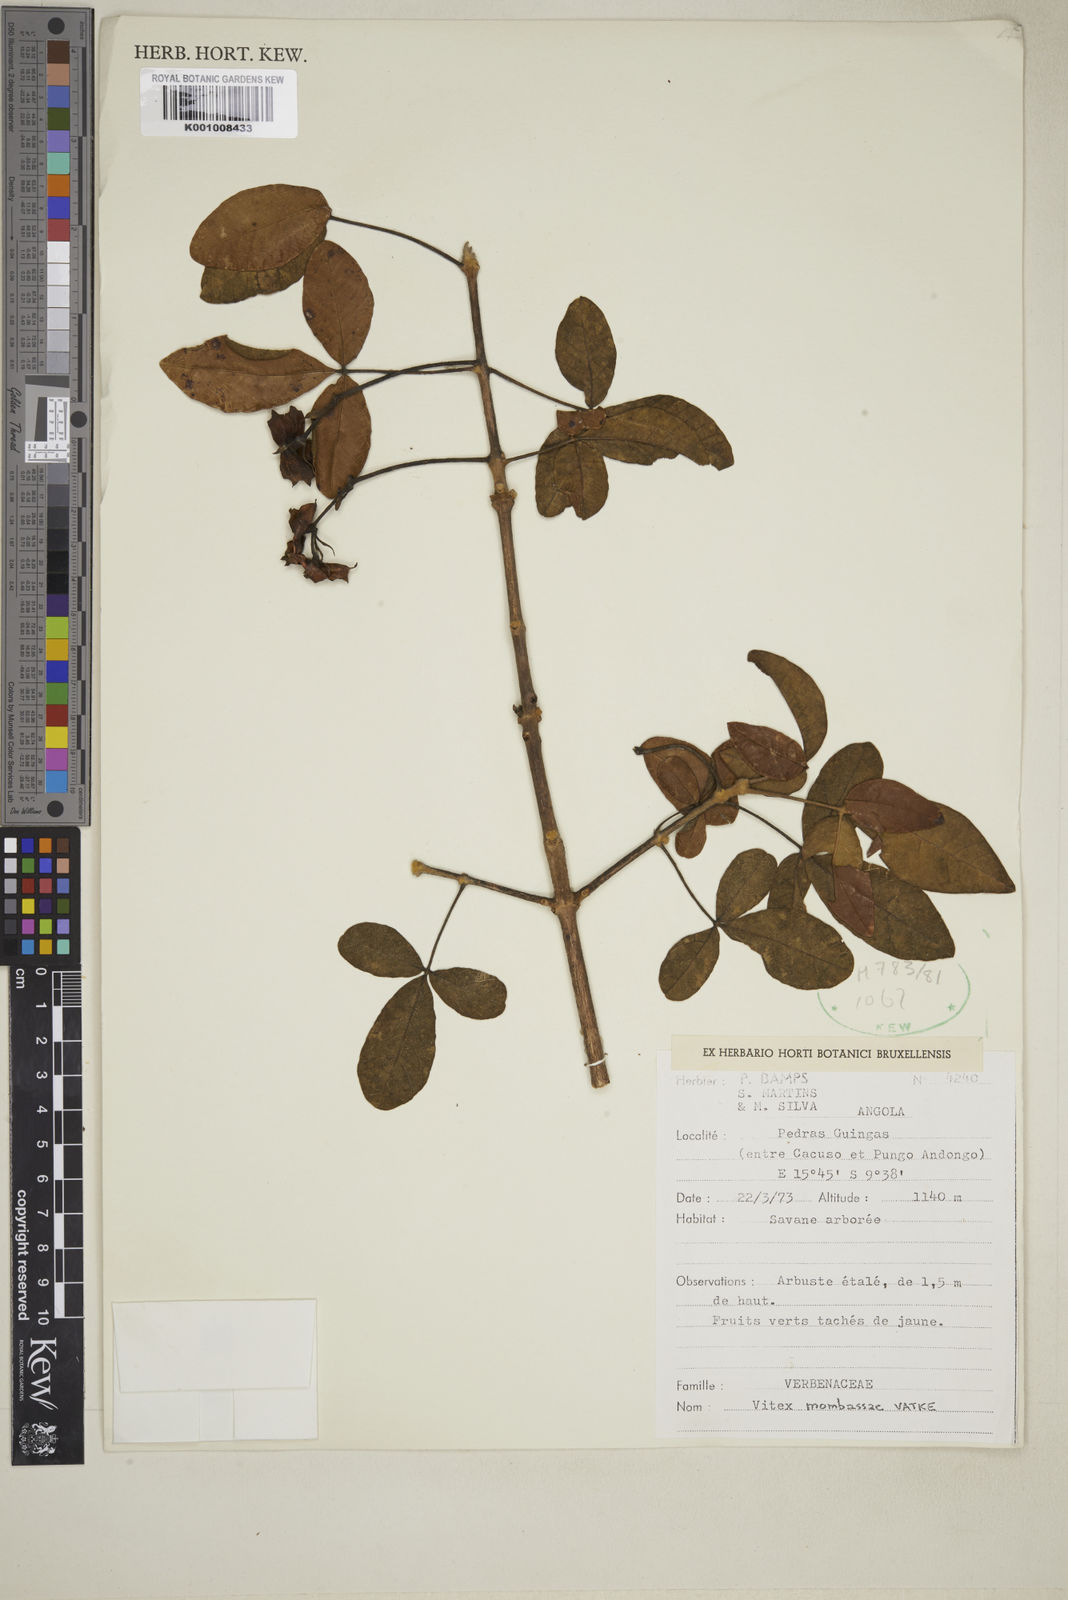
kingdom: Plantae
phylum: Tracheophyta
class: Magnoliopsida
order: Lamiales
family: Lamiaceae
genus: Vitex
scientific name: Vitex mombassae
